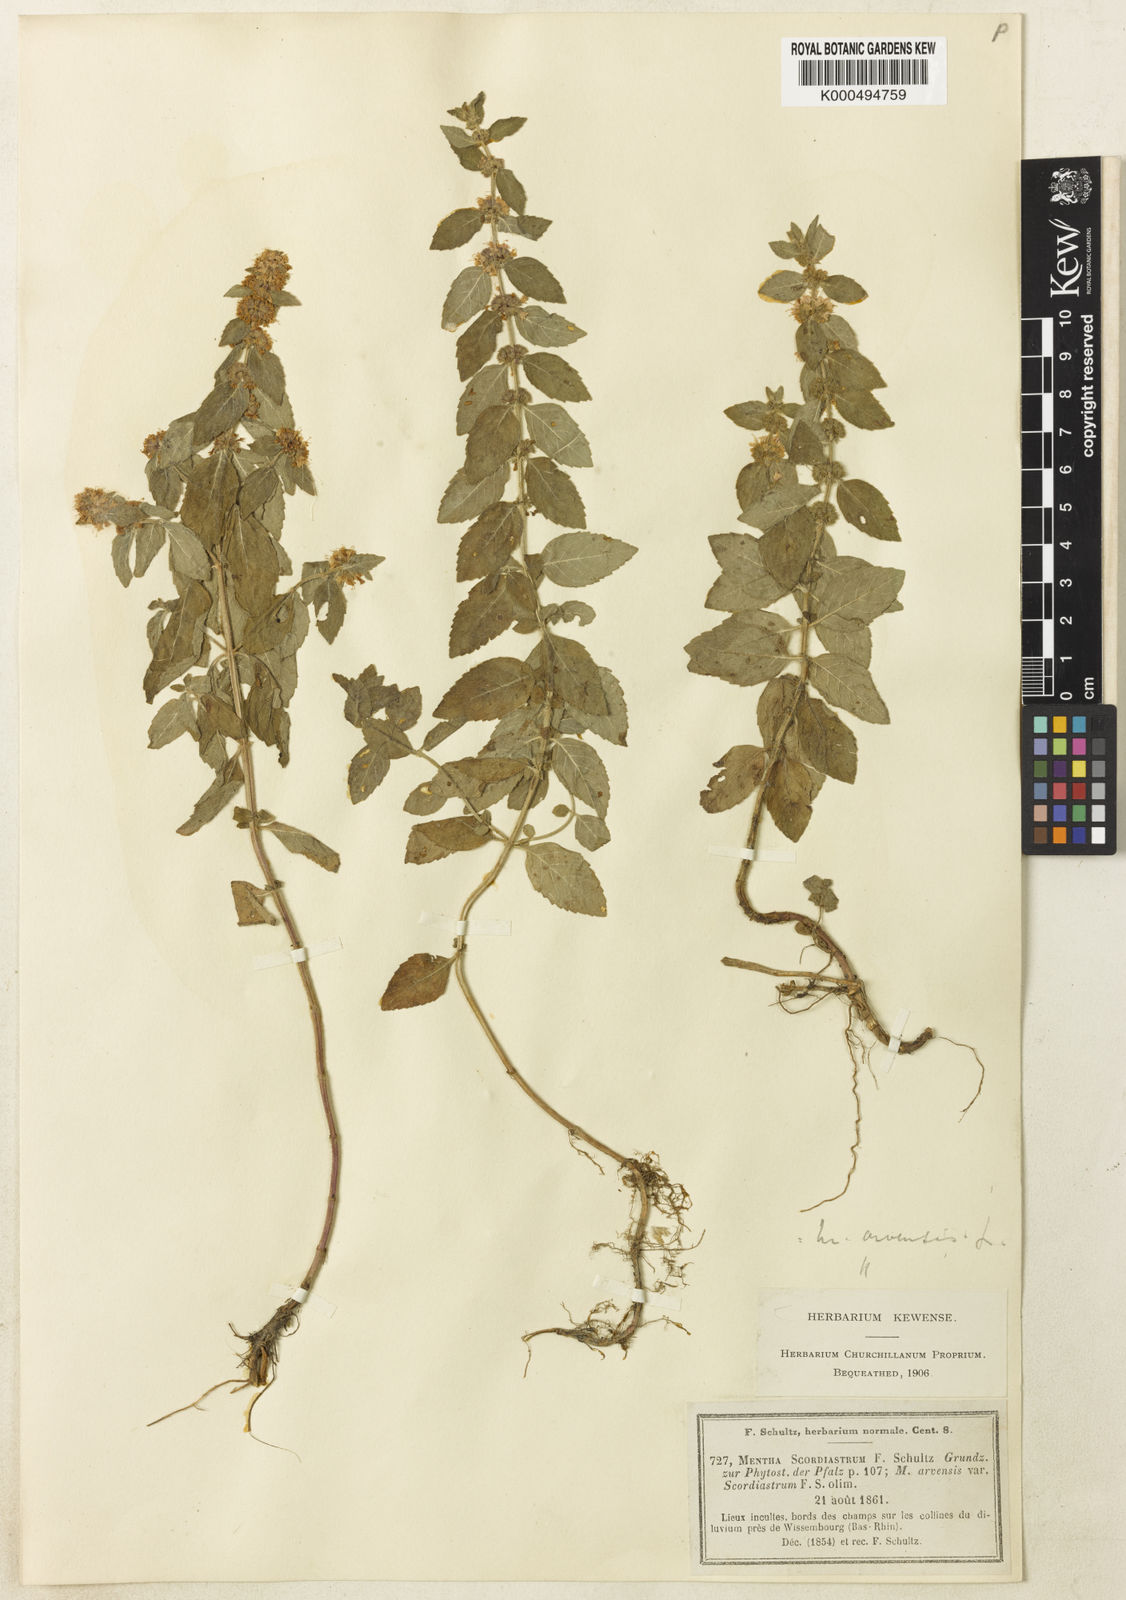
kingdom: Plantae
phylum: Tracheophyta
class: Magnoliopsida
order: Lamiales
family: Lamiaceae
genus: Mentha
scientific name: Mentha arvensis
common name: Corn mint
